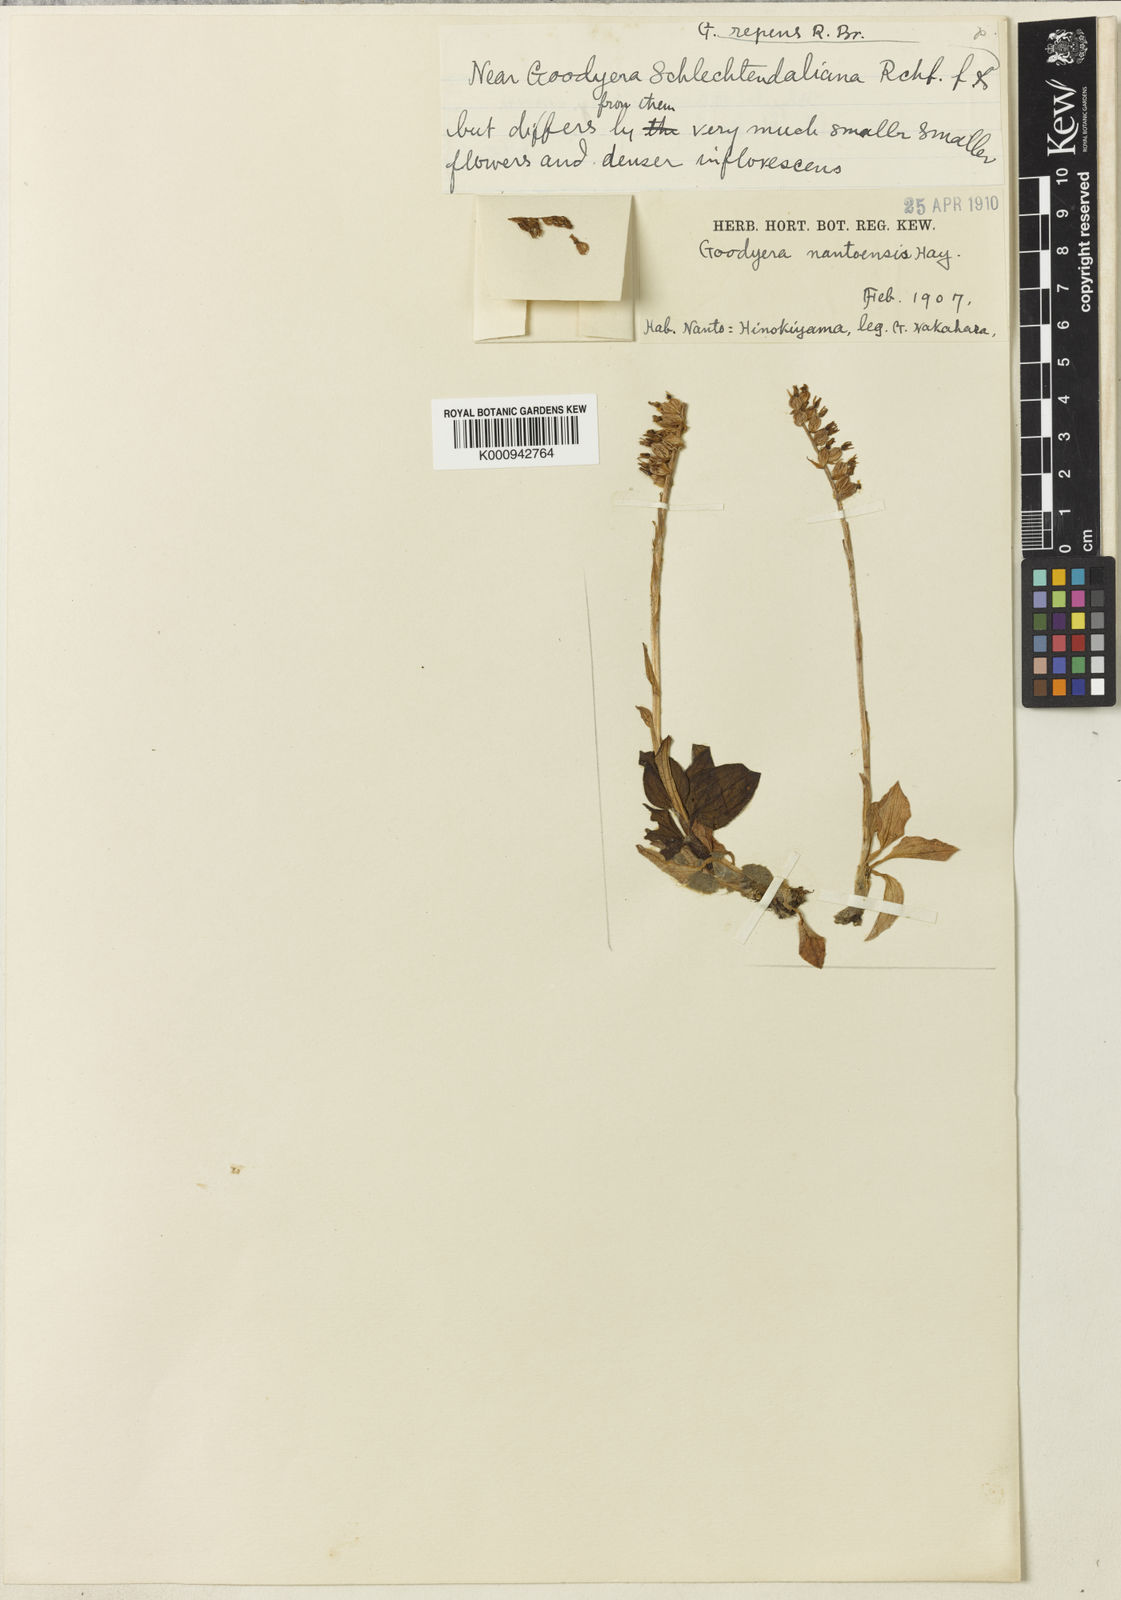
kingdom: Plantae
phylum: Tracheophyta
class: Liliopsida
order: Asparagales
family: Orchidaceae
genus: Goodyera
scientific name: Goodyera nantoensis
